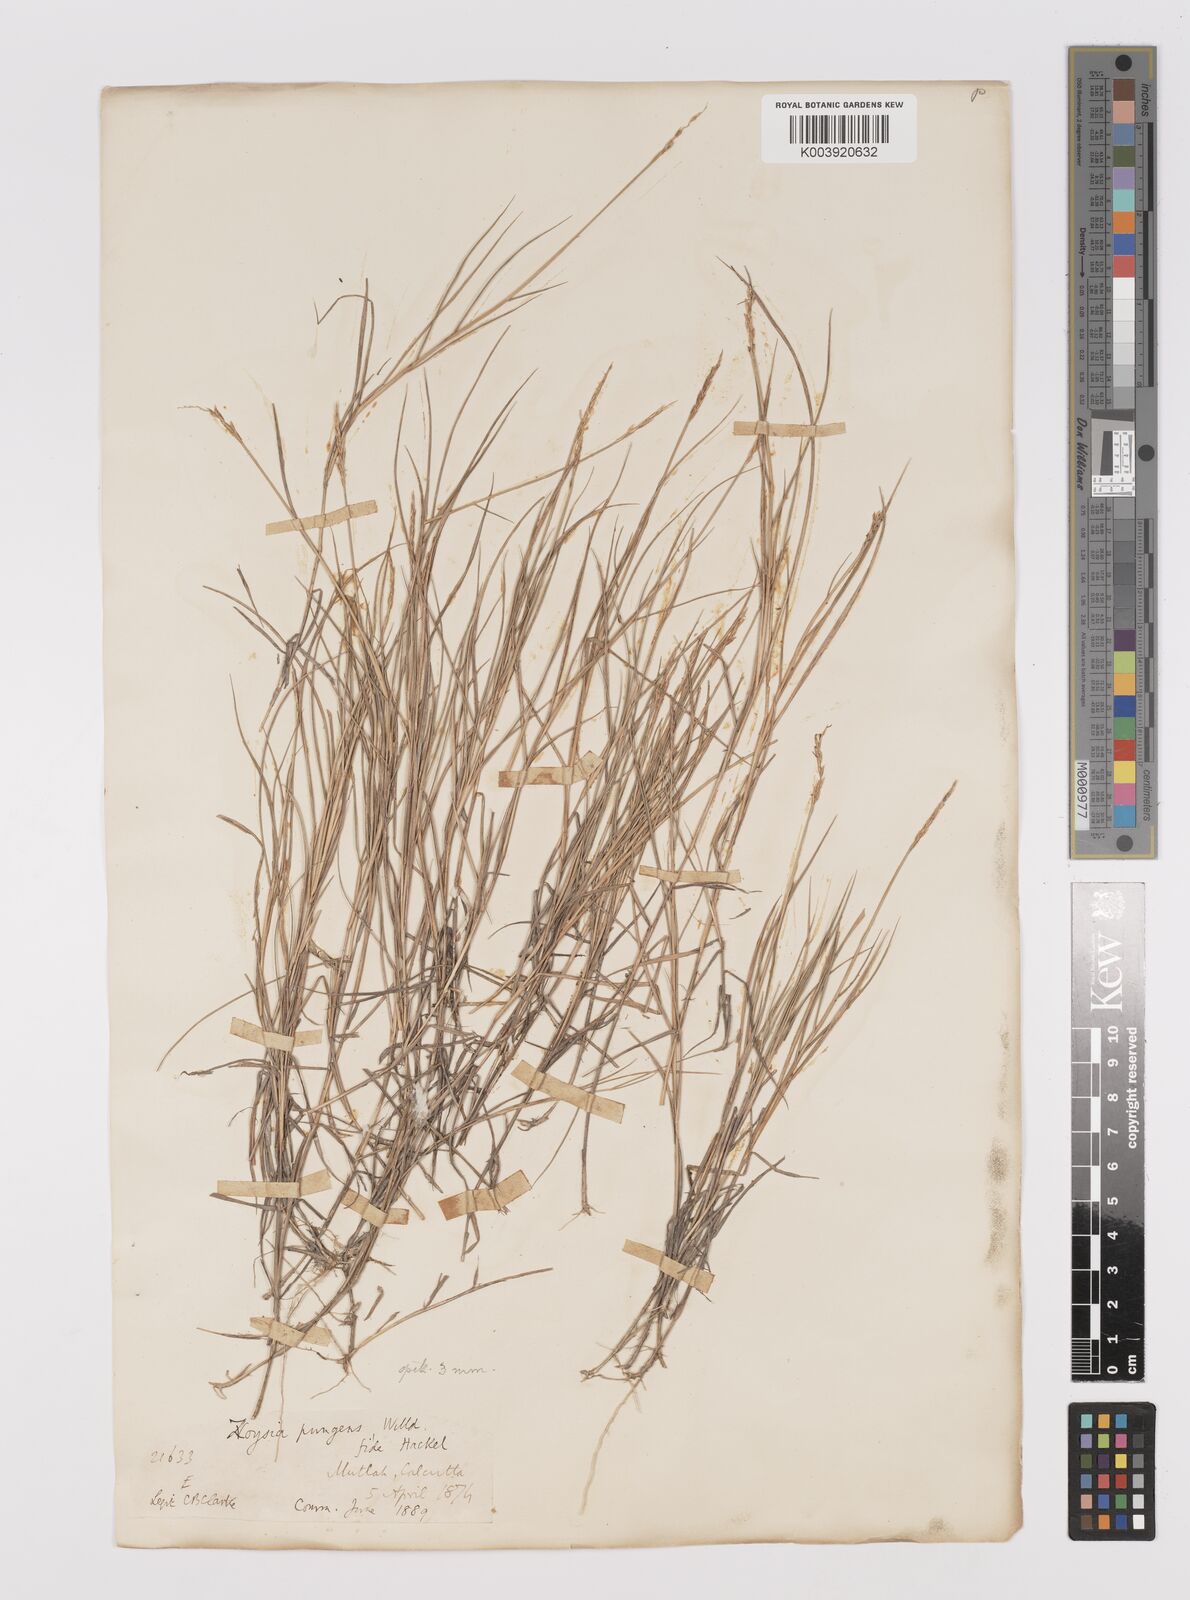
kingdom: Plantae
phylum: Tracheophyta
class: Liliopsida
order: Poales
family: Poaceae
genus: Zoysia
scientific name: Zoysia matrella
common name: Manila grass
